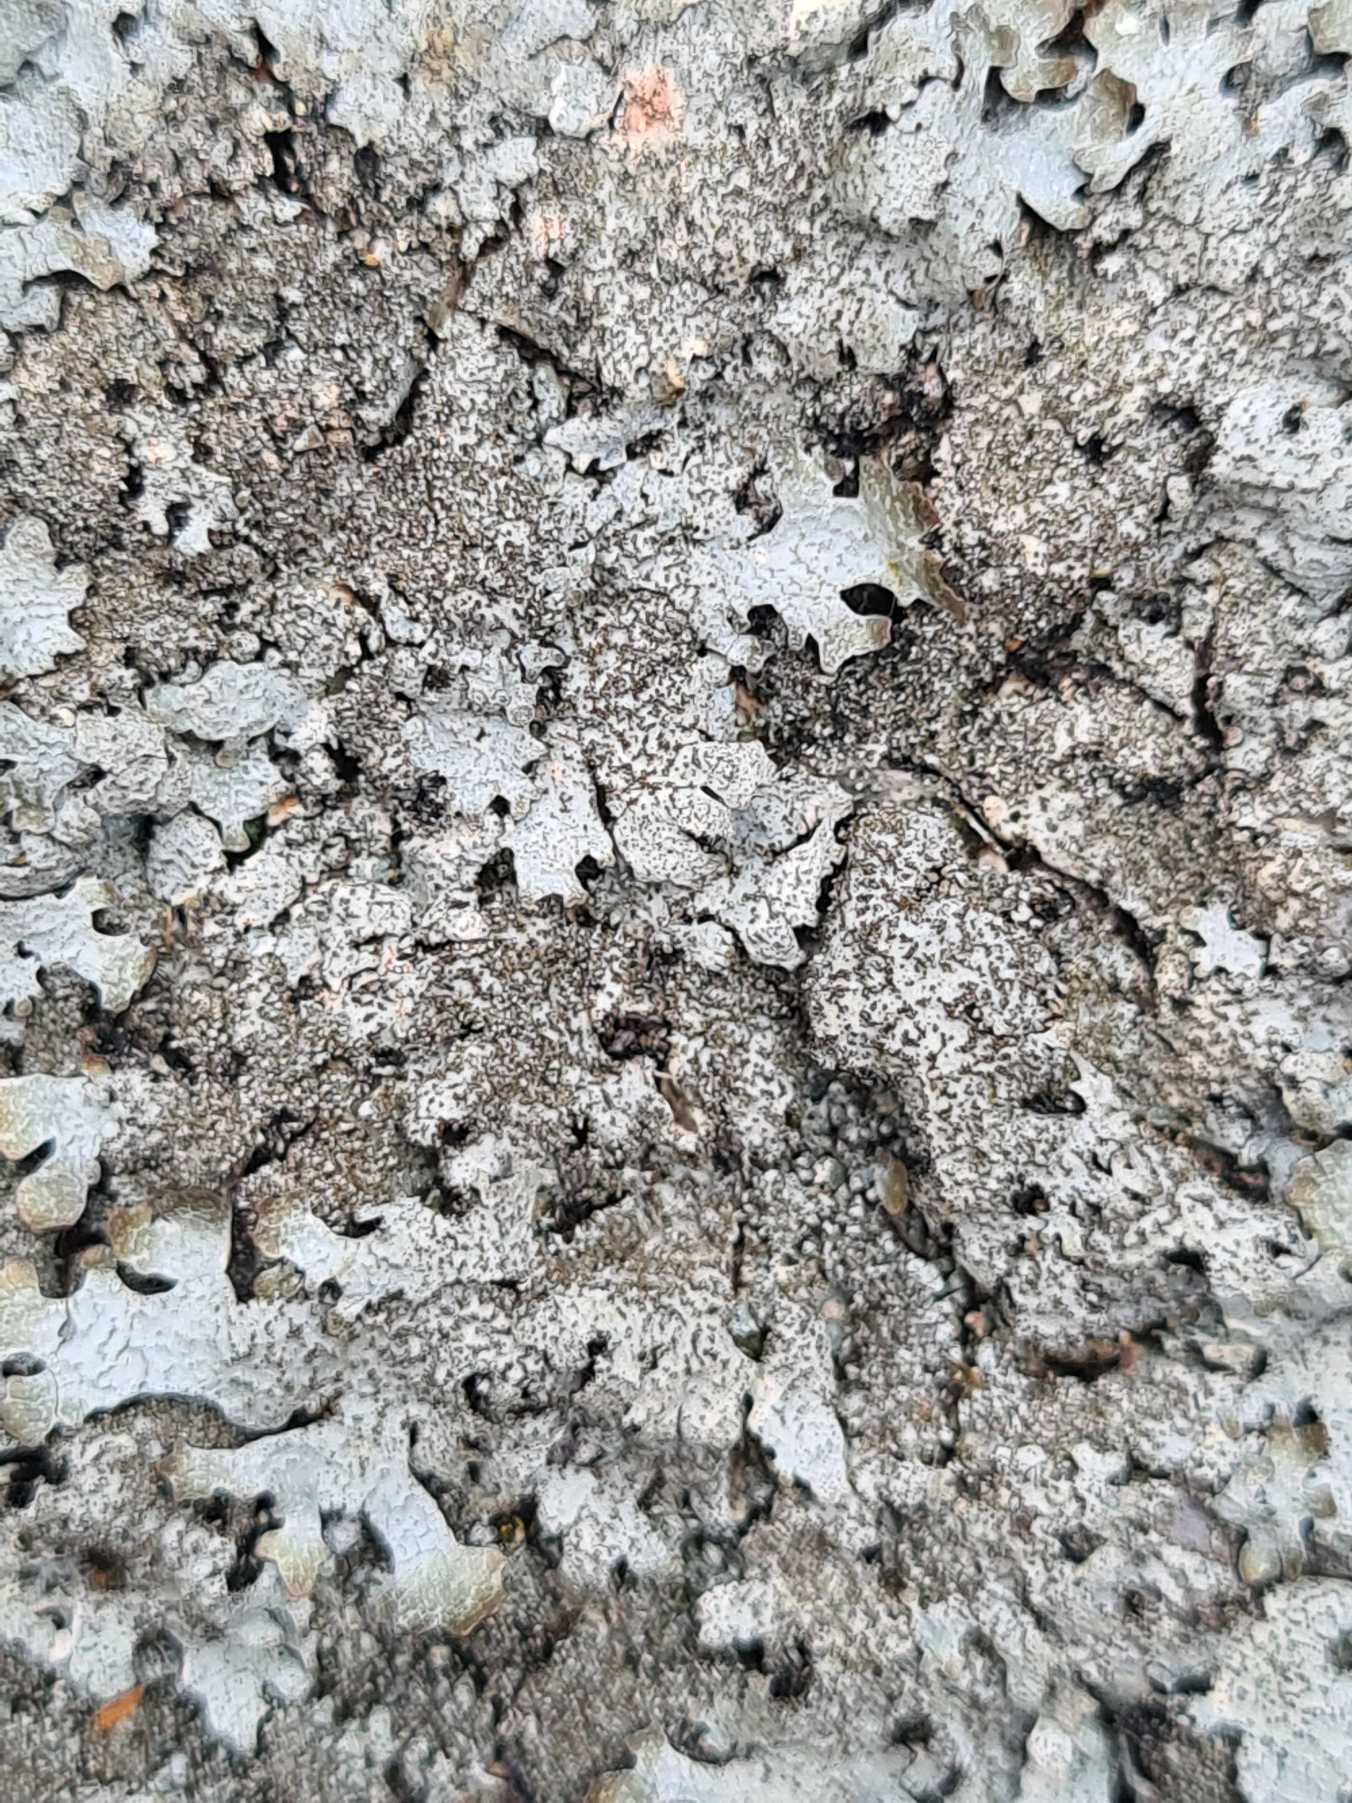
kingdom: Fungi
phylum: Ascomycota
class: Lecanoromycetes
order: Lecanorales
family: Parmeliaceae
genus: Parmelia
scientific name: Parmelia saxatilis
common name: Farve-skållav
